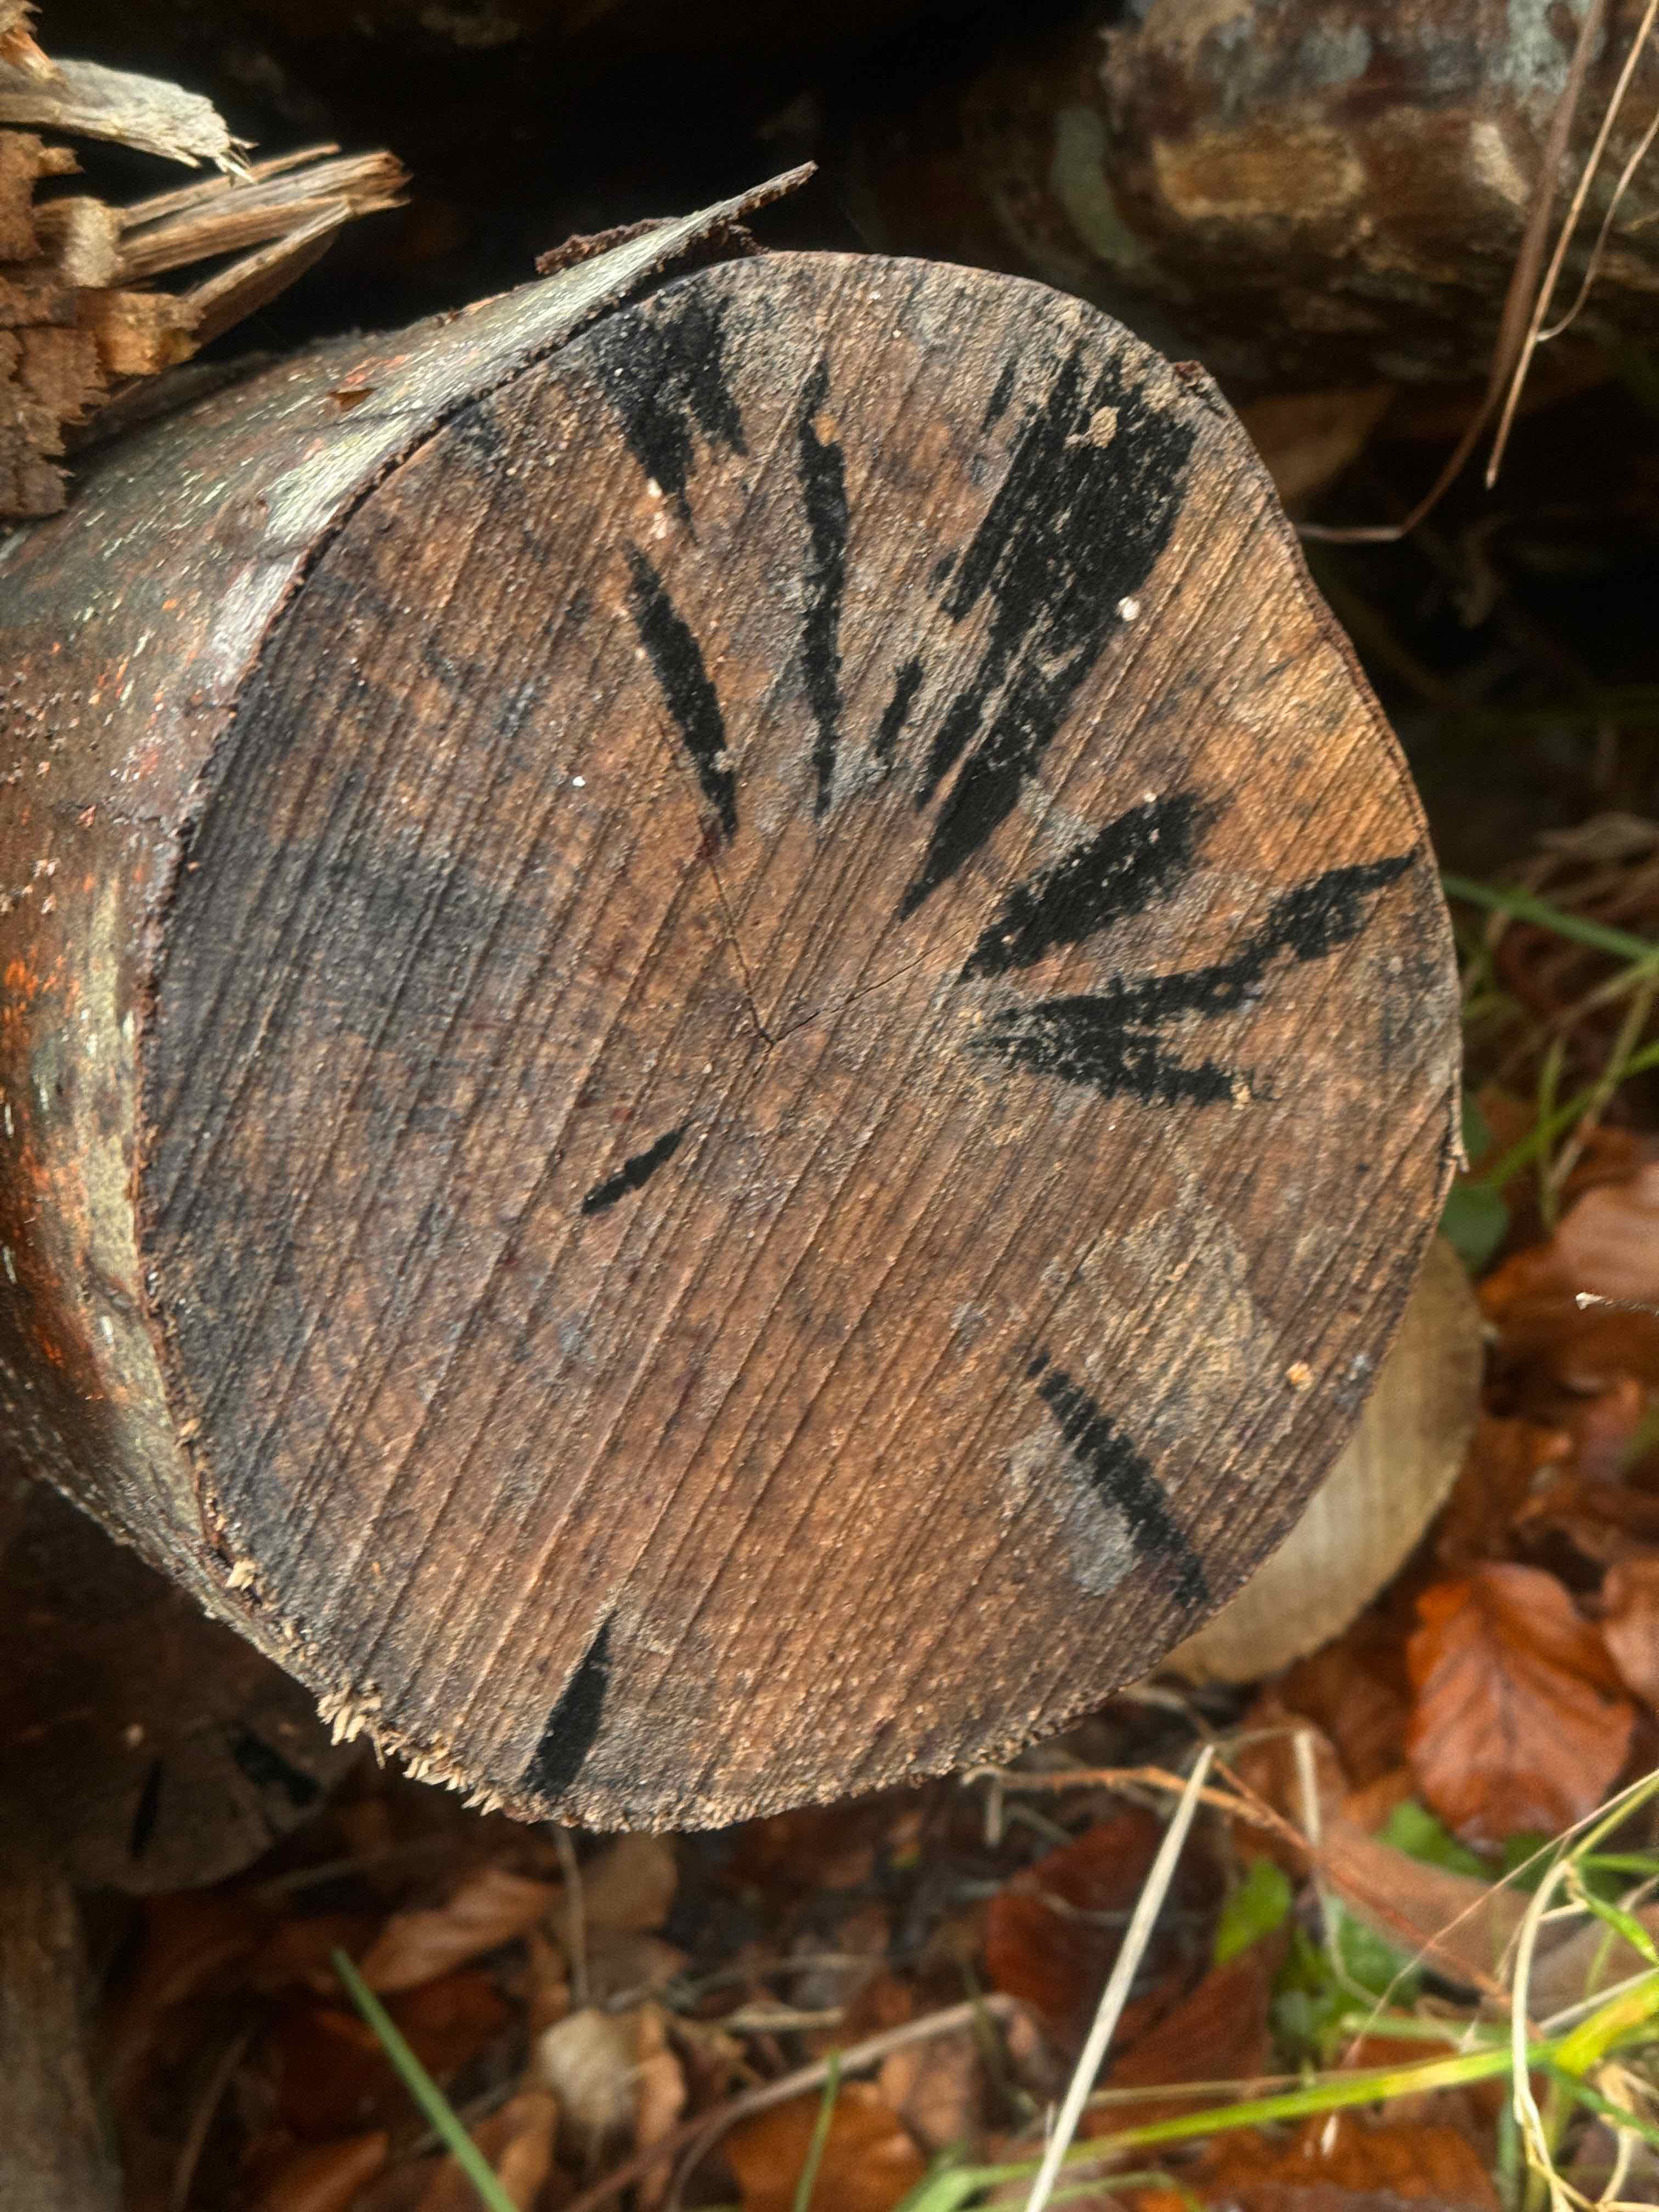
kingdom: Fungi
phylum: Ascomycota
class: Leotiomycetes
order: Helotiales
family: Helotiaceae
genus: Bispora
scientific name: Bispora pallescens
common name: måtte-snitskive
